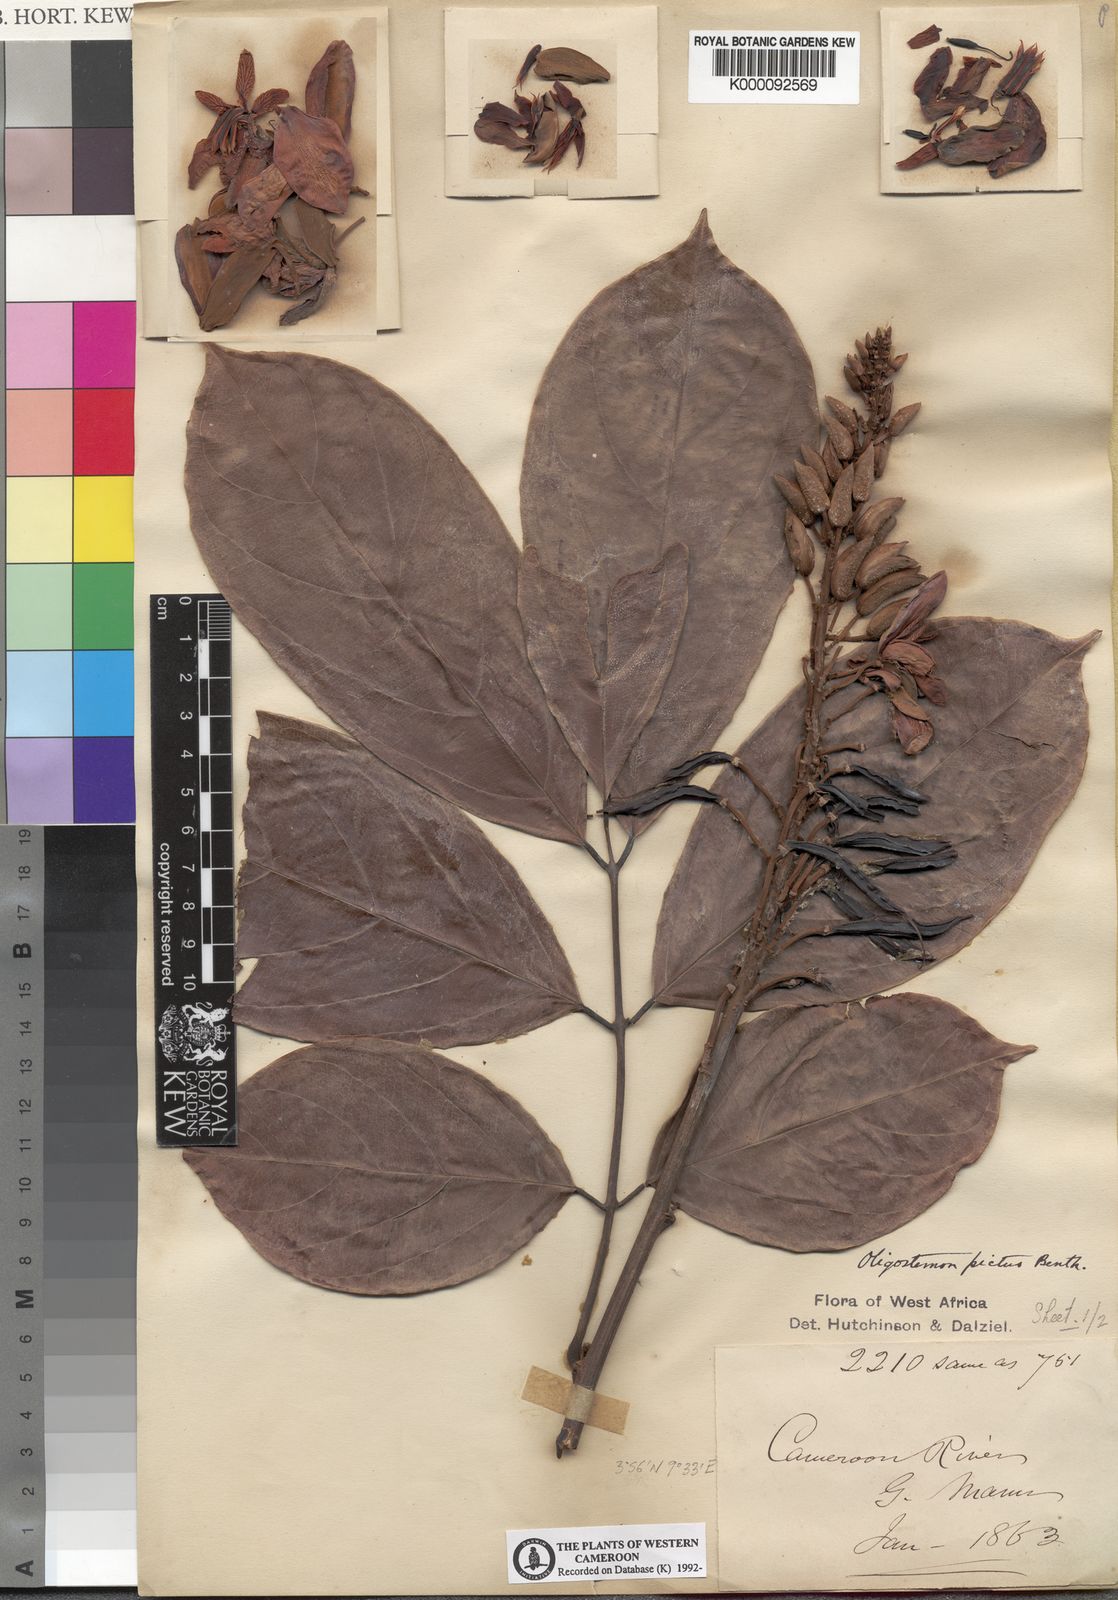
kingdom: Plantae
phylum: Tracheophyta
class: Magnoliopsida
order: Fabales
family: Fabaceae
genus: Duparquetia
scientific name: Duparquetia orchidacea
